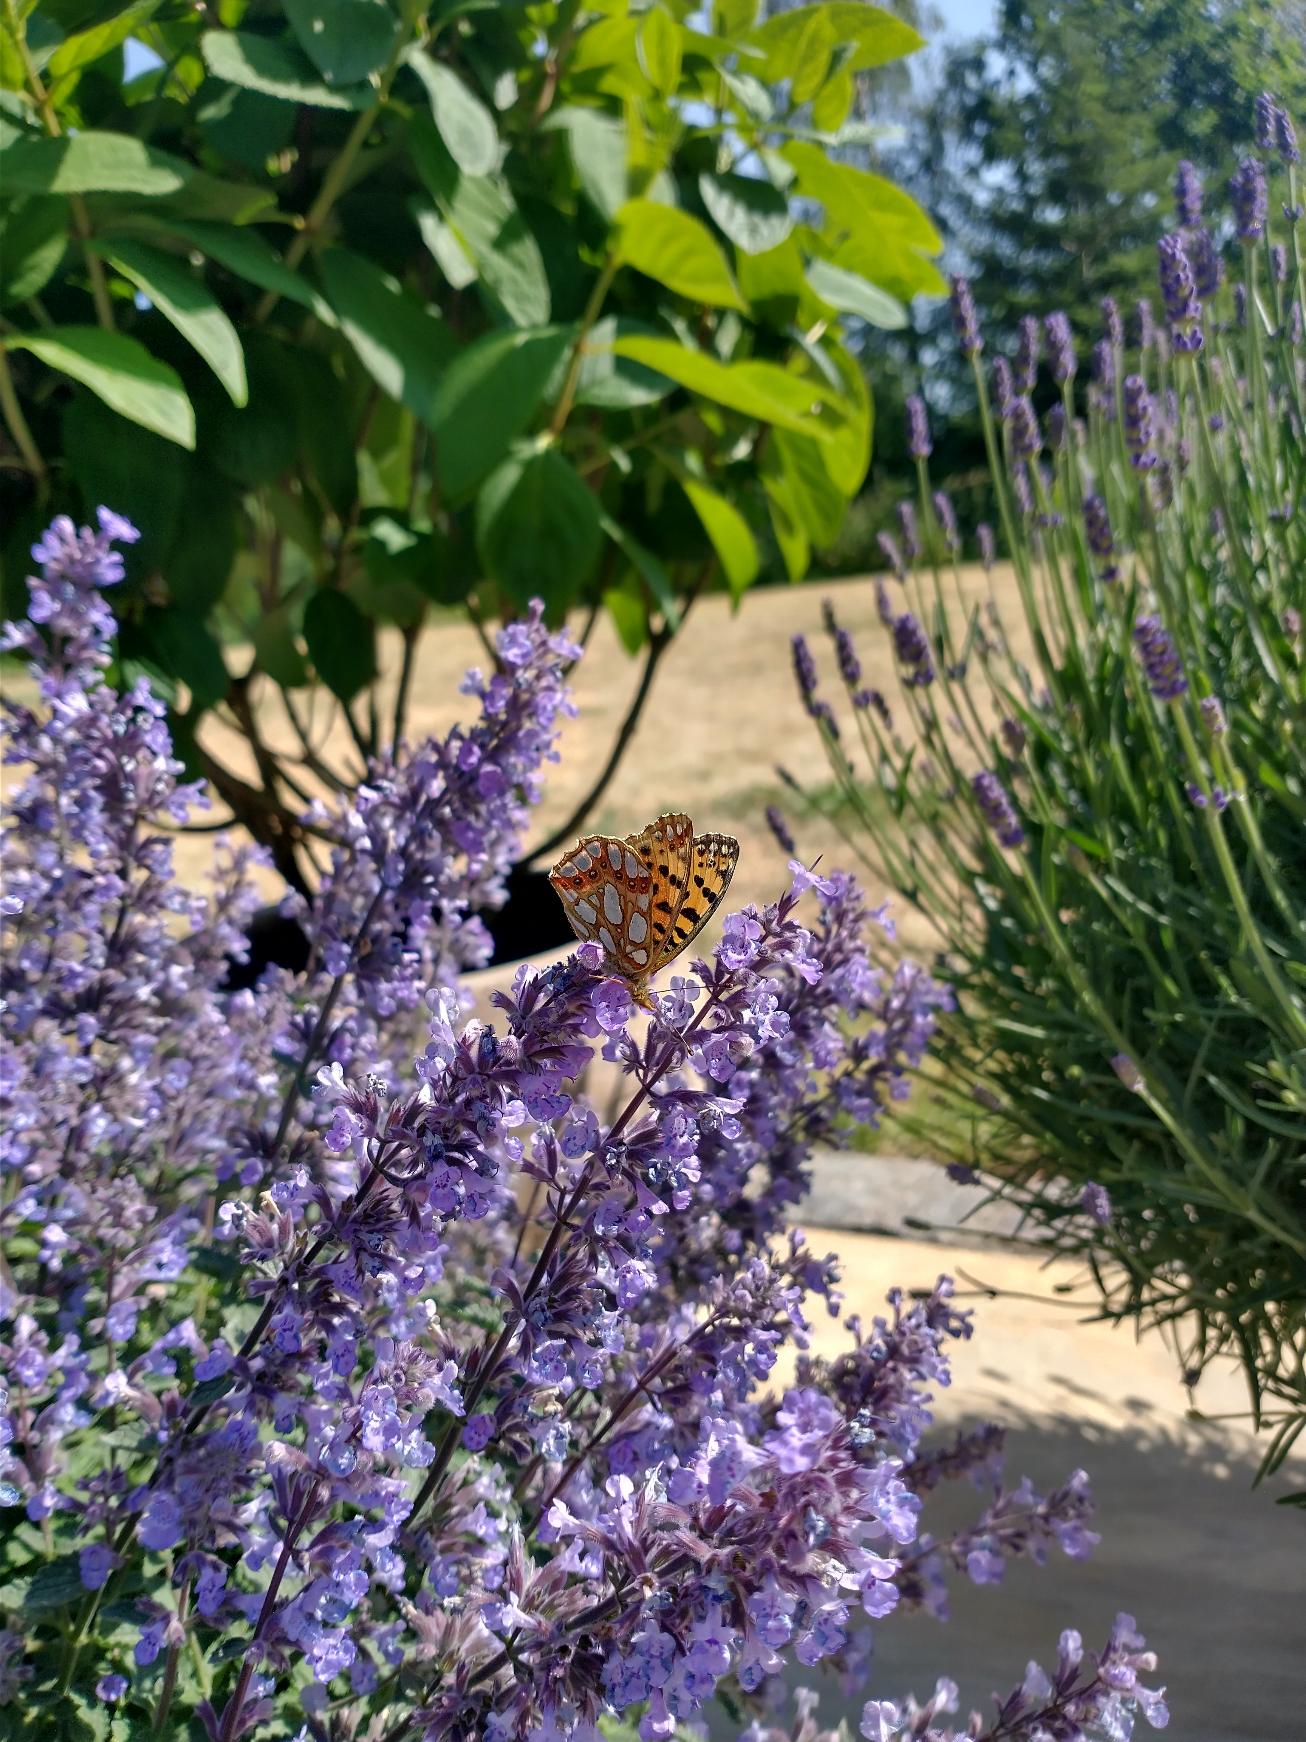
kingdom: Animalia
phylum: Arthropoda
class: Insecta
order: Lepidoptera
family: Nymphalidae
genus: Issoria
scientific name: Issoria lathonia
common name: Storplettet perlemorsommerfugl
